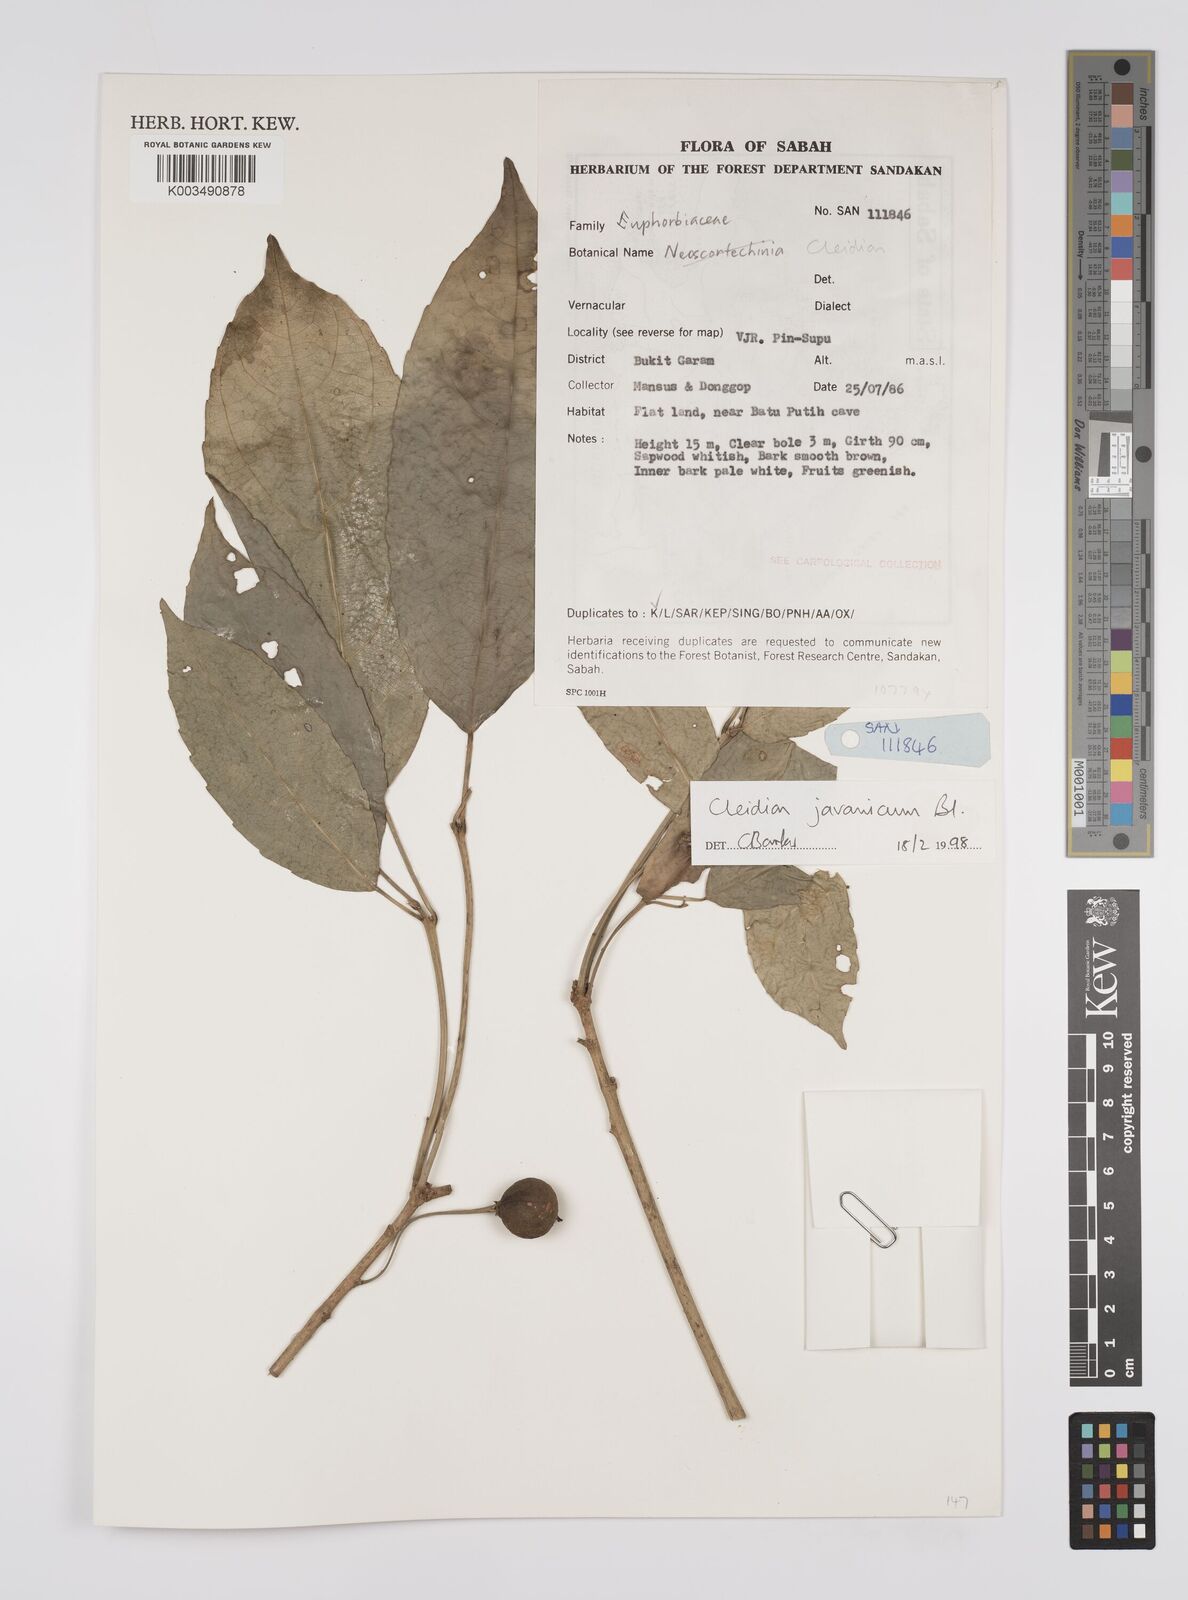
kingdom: Plantae
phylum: Tracheophyta
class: Magnoliopsida
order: Malpighiales
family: Euphorbiaceae
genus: Cleidion
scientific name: Cleidion javanicum
